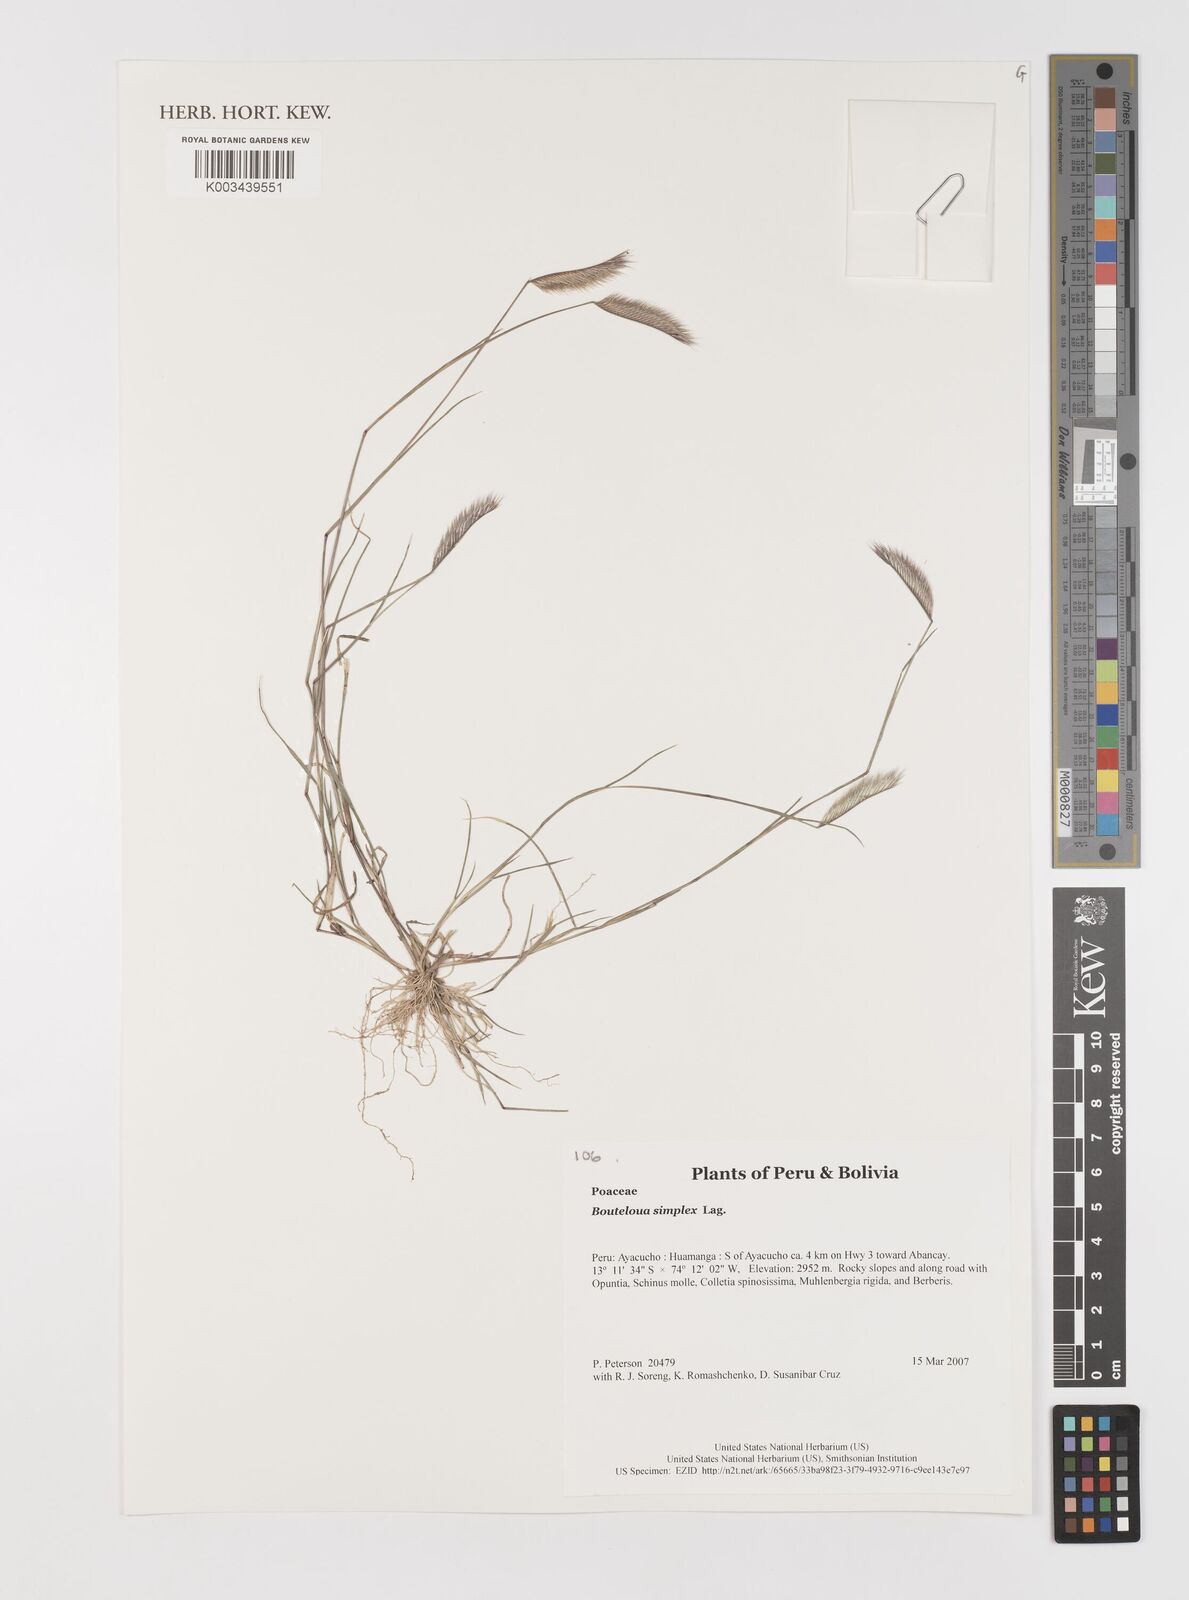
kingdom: Plantae
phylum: Tracheophyta
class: Liliopsida
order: Poales
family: Poaceae
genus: Bouteloua
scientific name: Bouteloua simplex
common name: Mat grama
